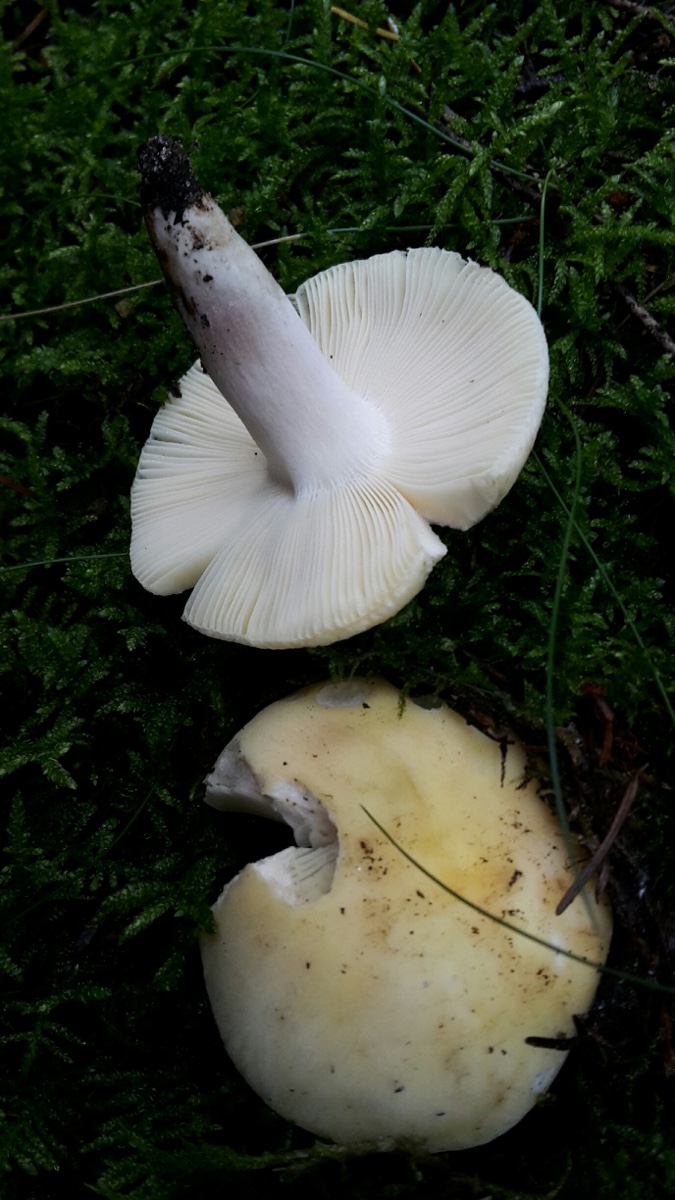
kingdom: Fungi
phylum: Basidiomycota
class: Agaricomycetes
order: Russulales
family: Russulaceae
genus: Russula
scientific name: Russula violeipes
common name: ferskengul skørhat
